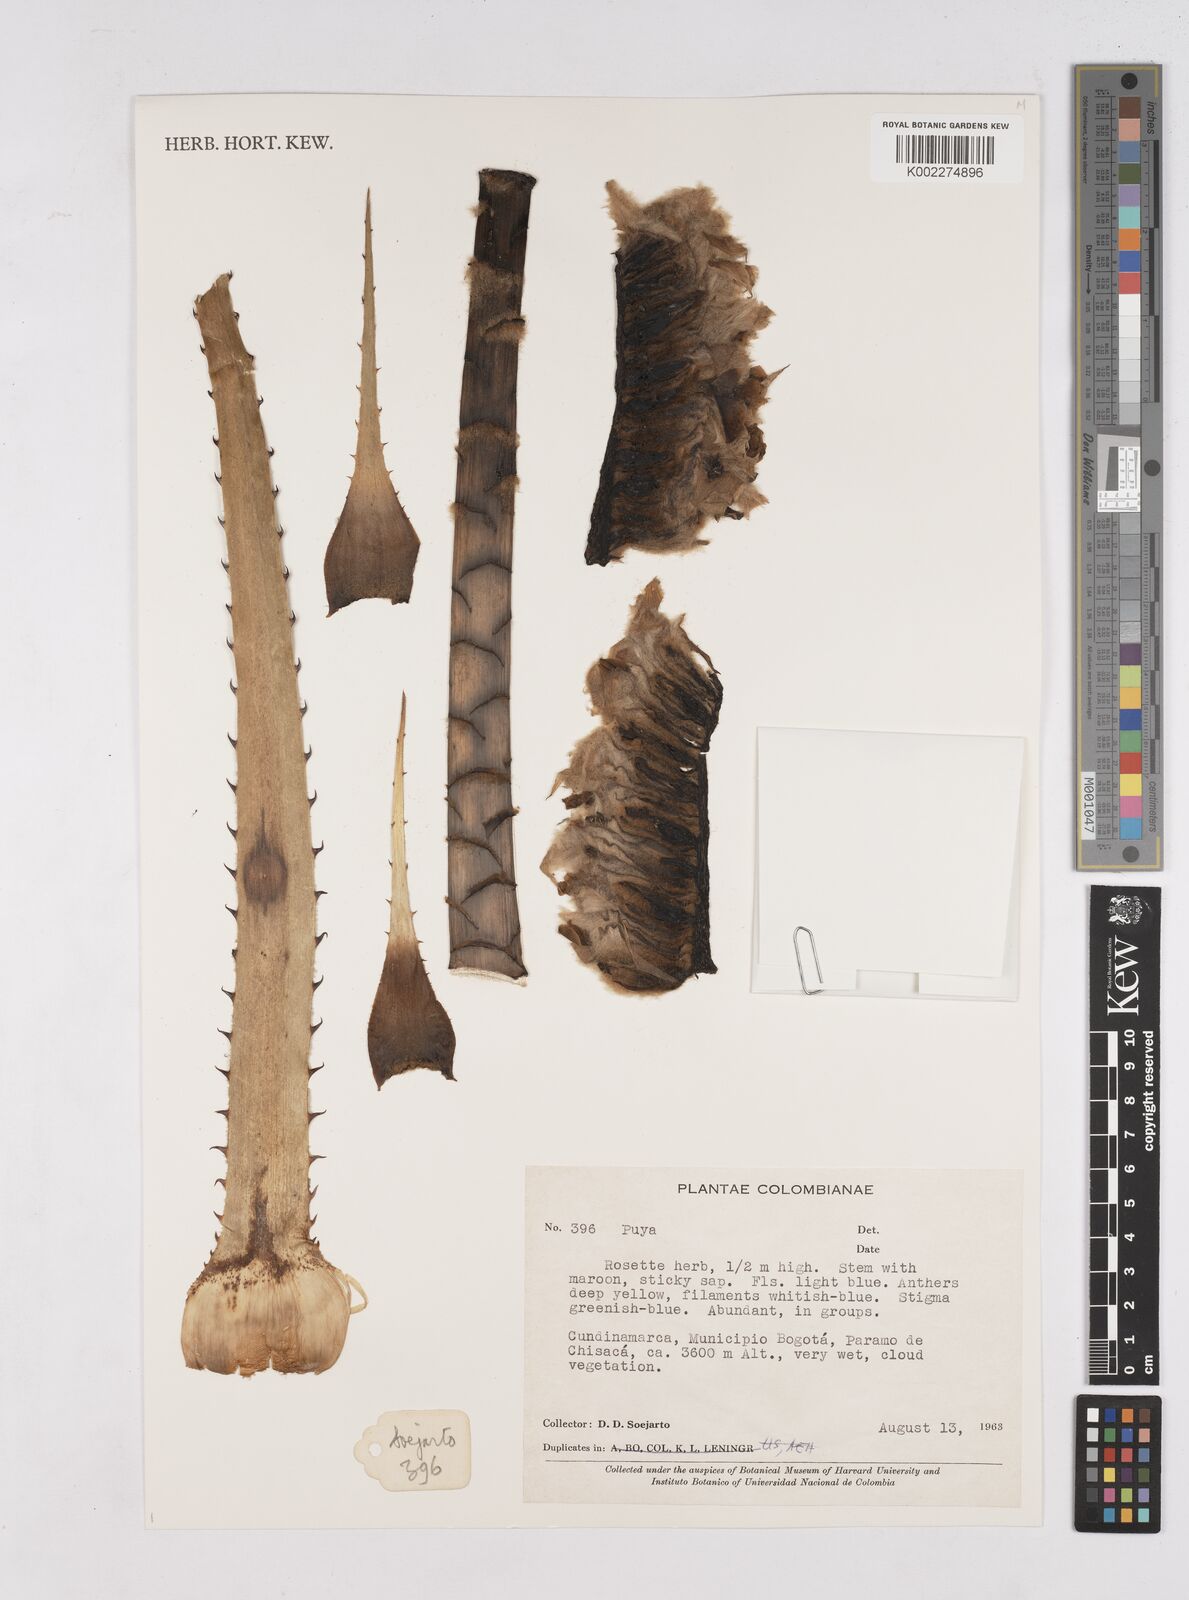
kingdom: Plantae
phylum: Tracheophyta
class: Liliopsida
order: Poales
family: Bromeliaceae
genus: Puya
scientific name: Puya
